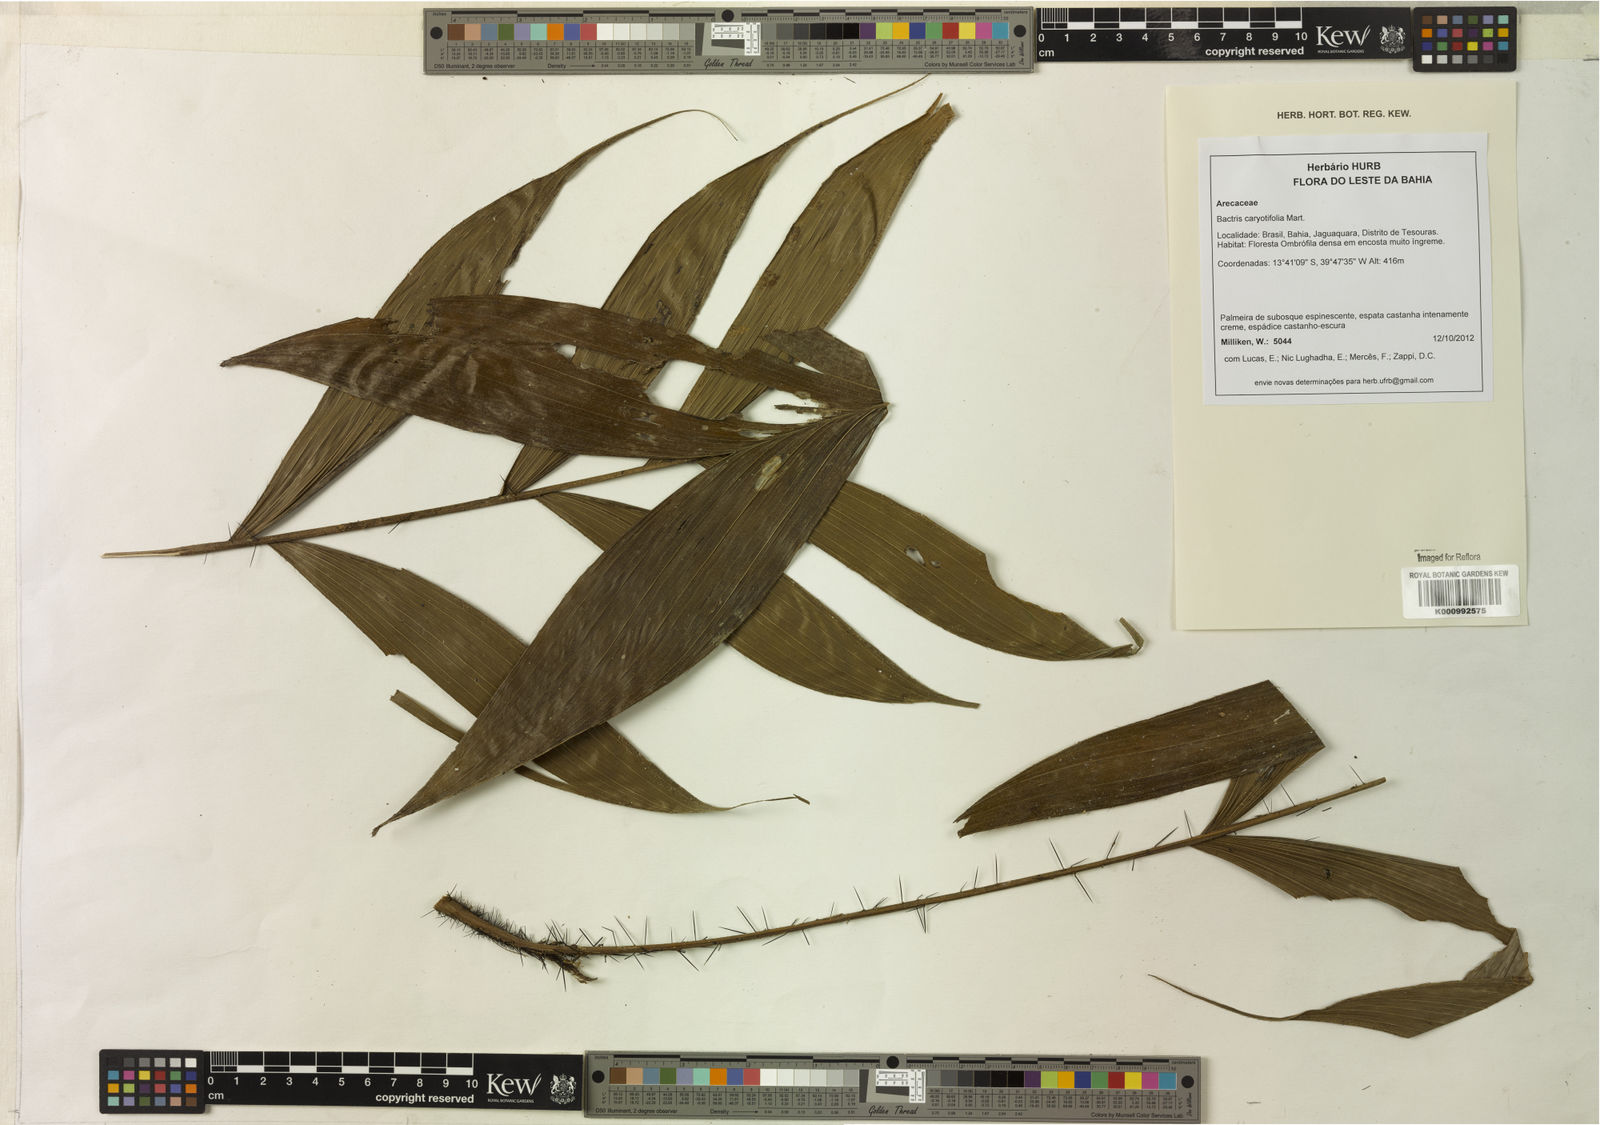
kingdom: Plantae
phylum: Tracheophyta
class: Liliopsida
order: Arecales
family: Arecaceae
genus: Bactris
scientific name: Bactris caryotifolia
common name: Caryota-leaf peach palm
